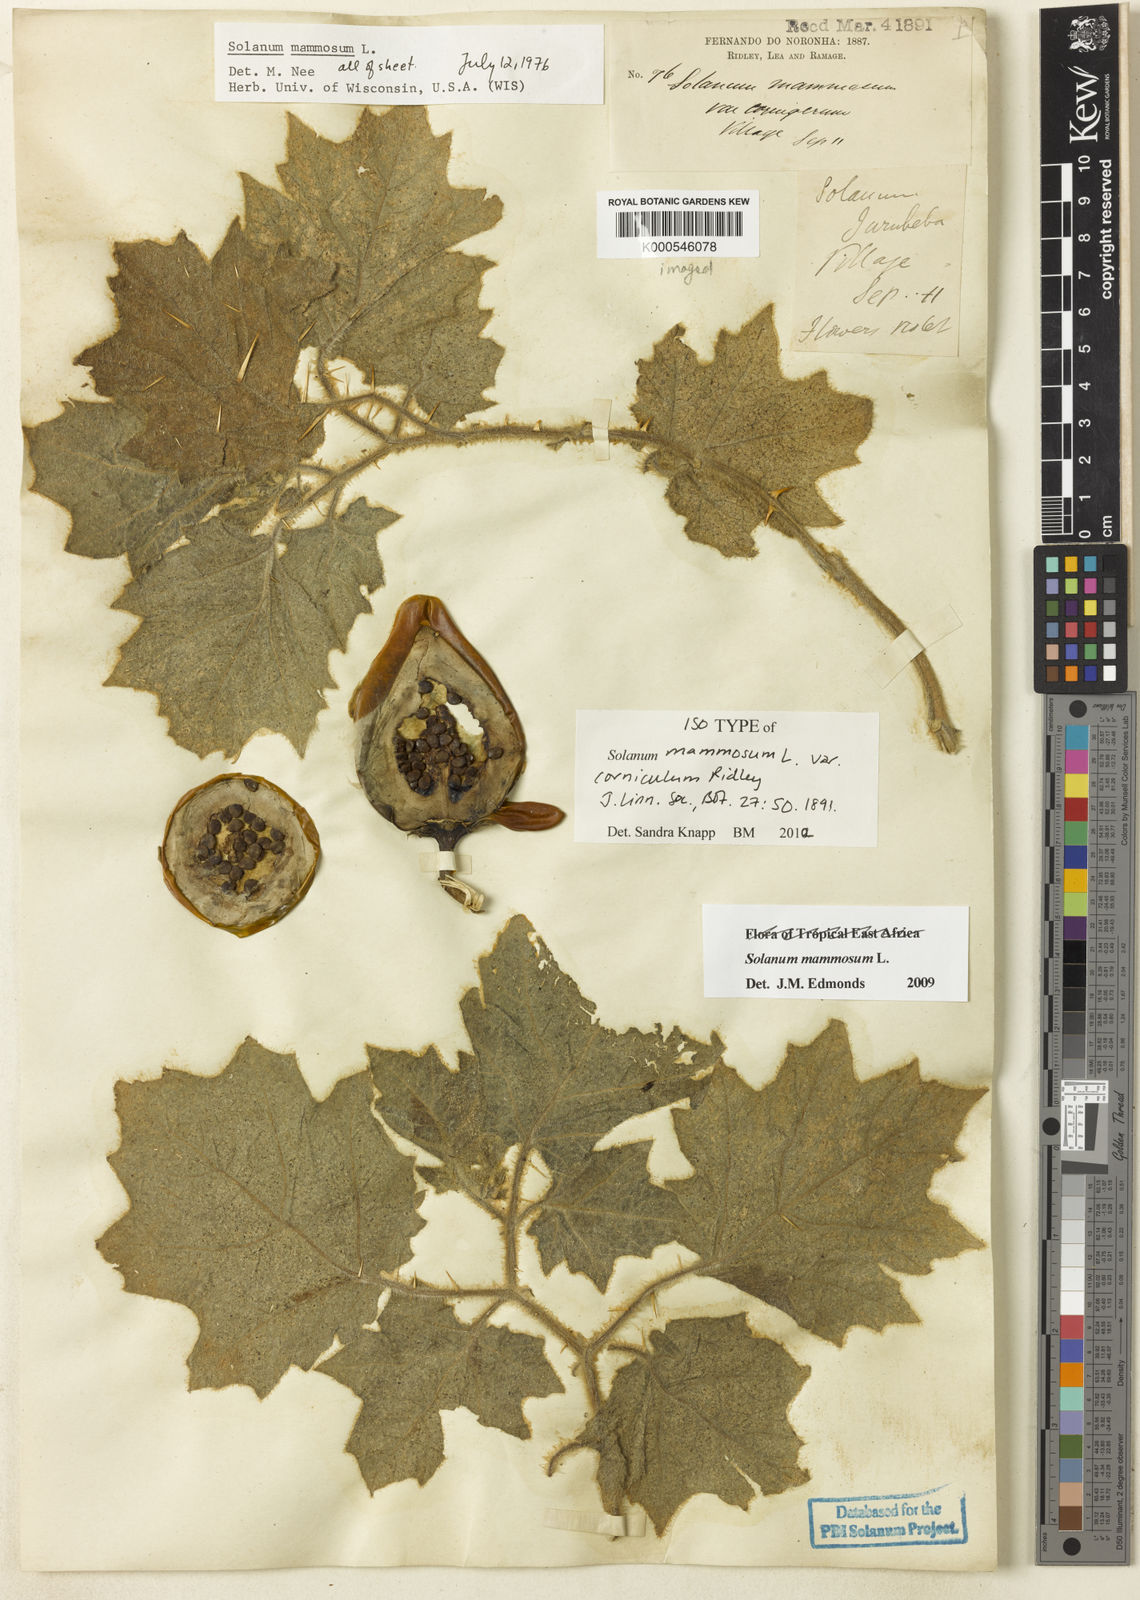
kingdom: Plantae
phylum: Tracheophyta
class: Magnoliopsida
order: Solanales
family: Solanaceae
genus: Solanum
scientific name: Solanum mammosum
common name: Nipple fruit
